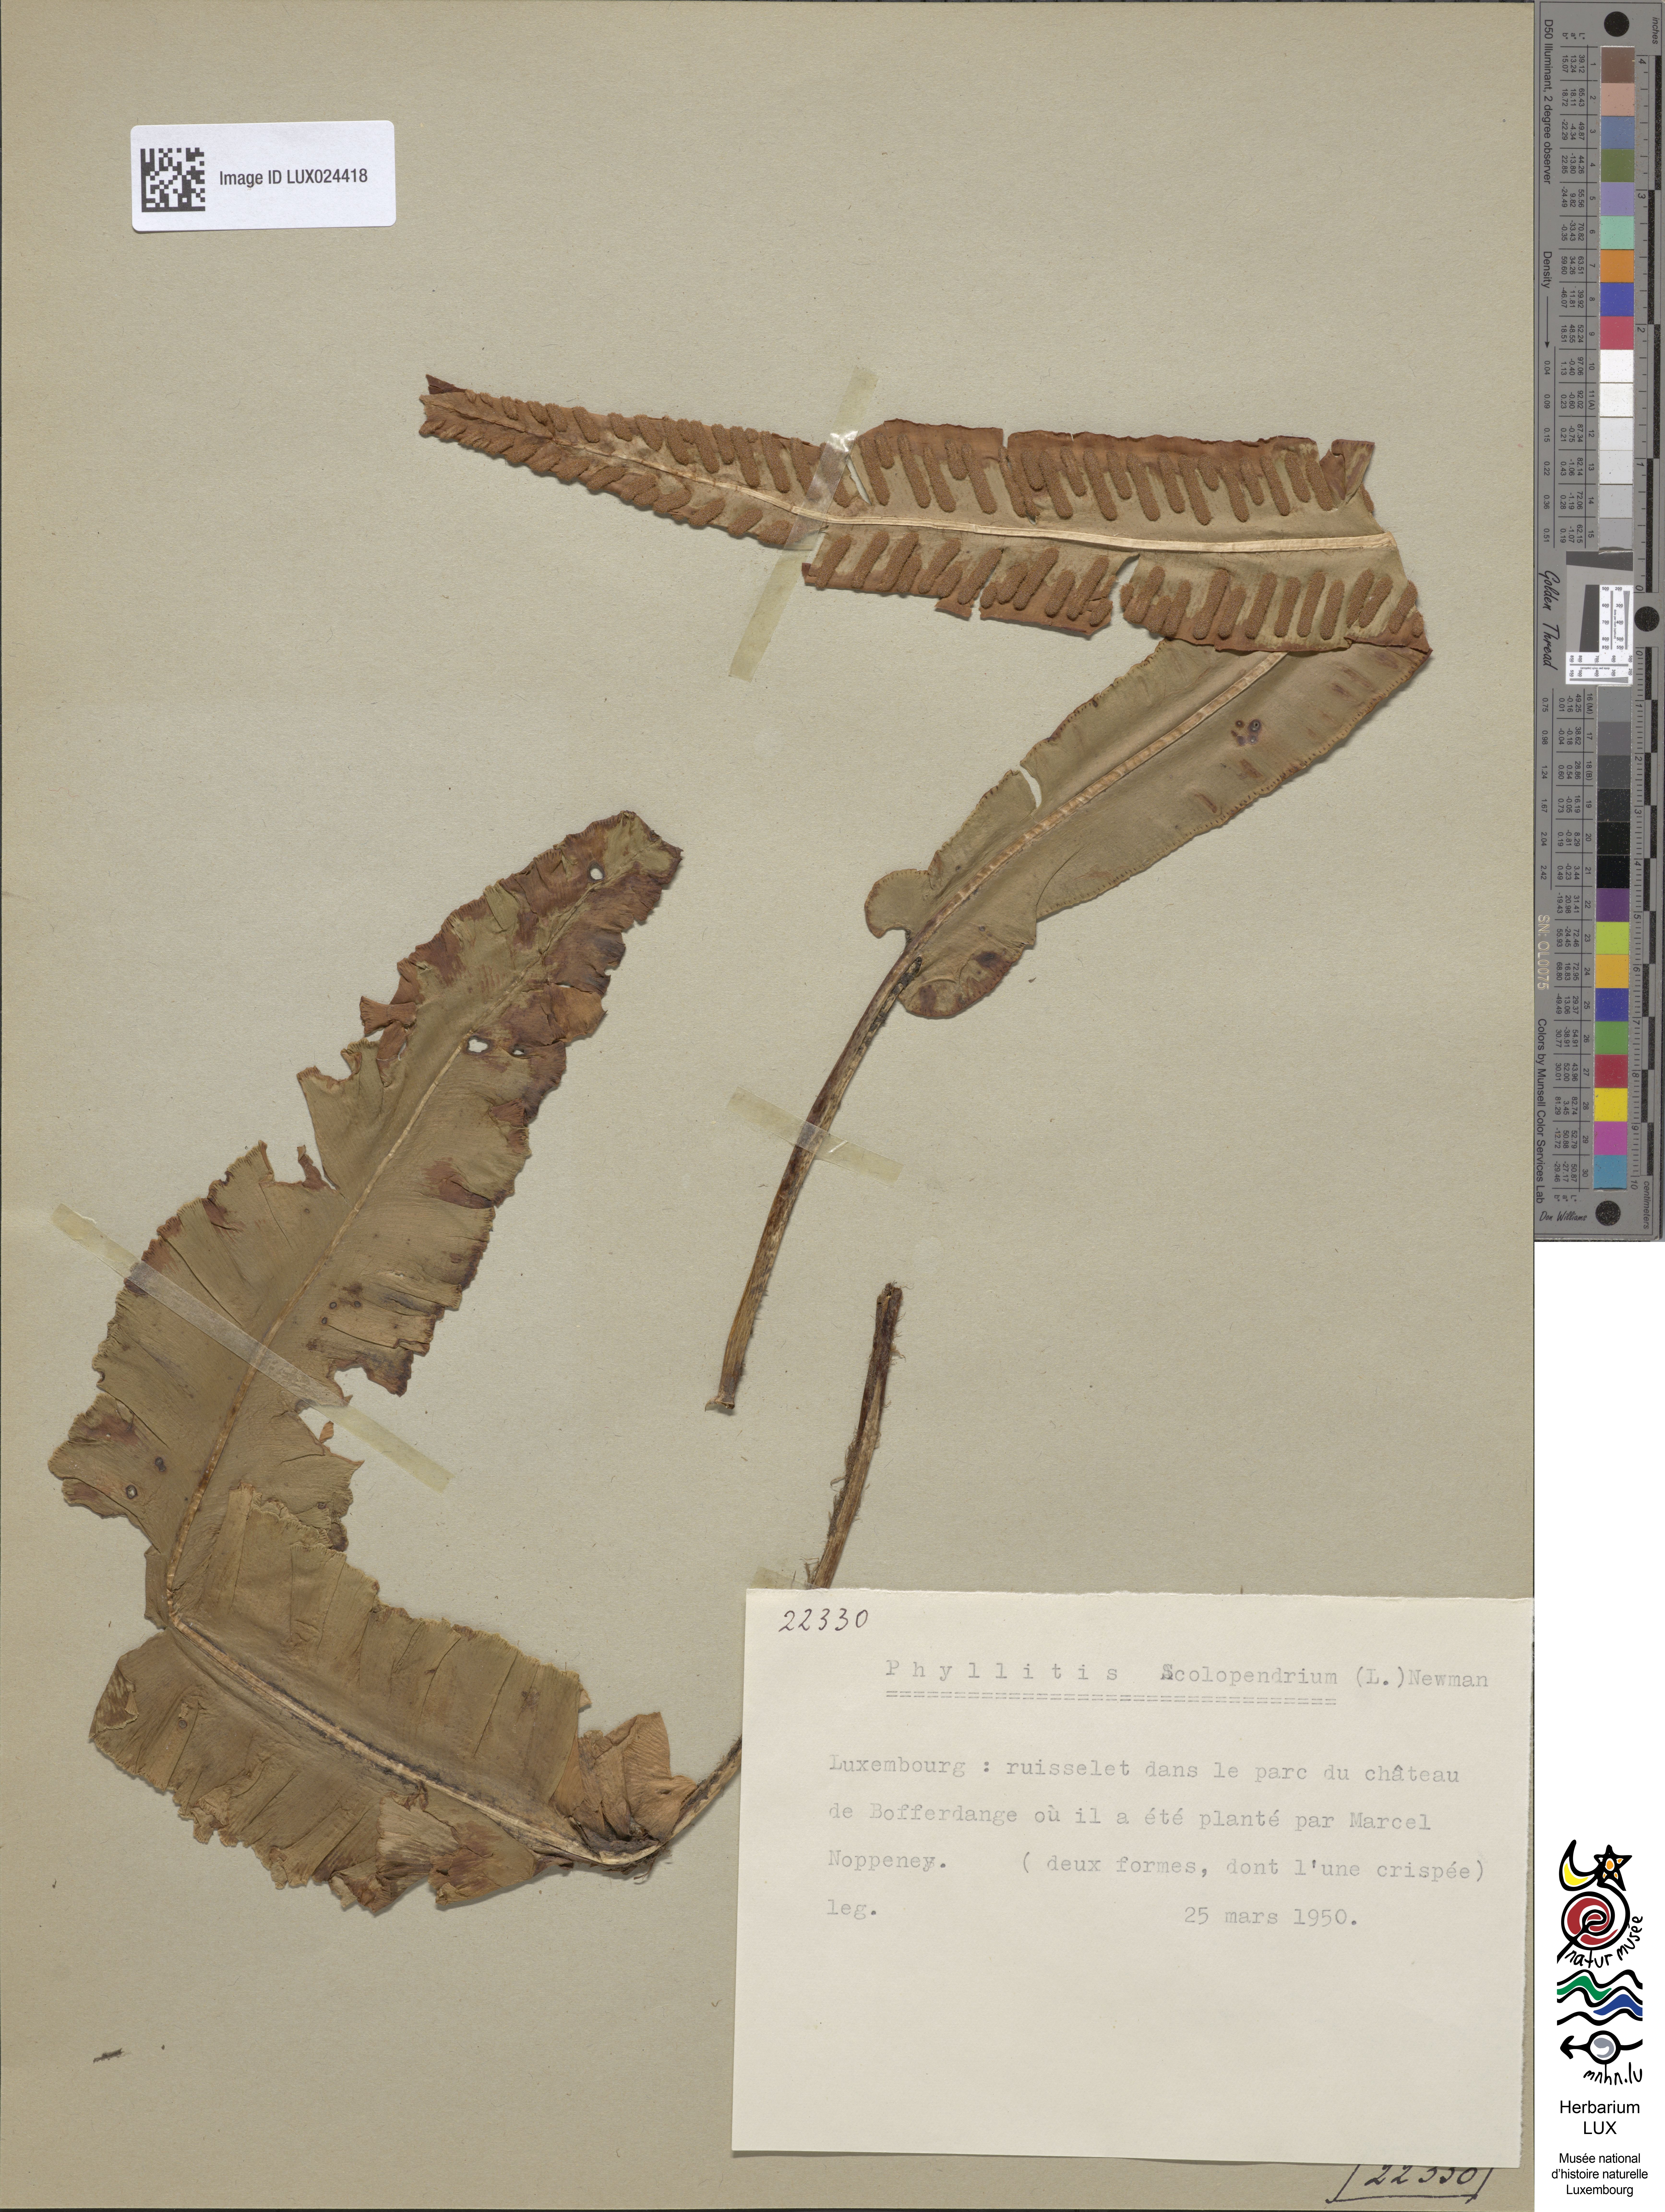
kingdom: Plantae
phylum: Tracheophyta
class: Polypodiopsida
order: Polypodiales
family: Aspleniaceae
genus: Asplenium
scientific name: Asplenium scolopendrium
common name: Hart's-tongue fern
